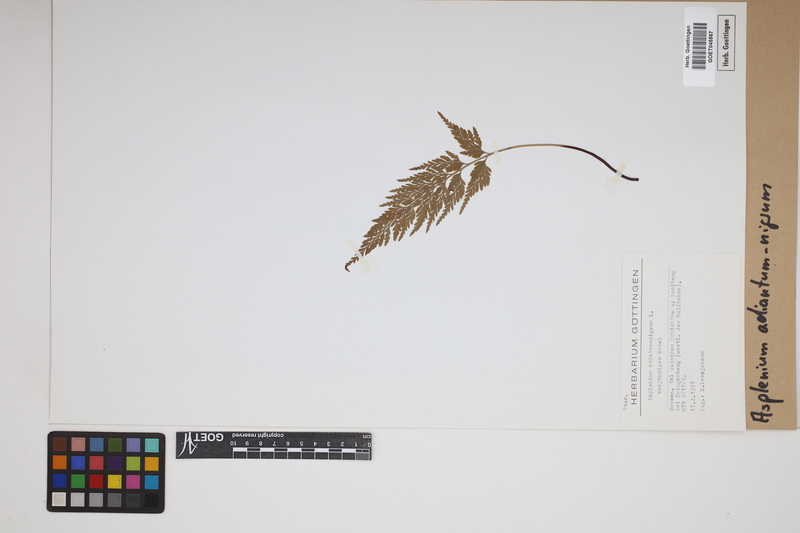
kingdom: Plantae
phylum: Tracheophyta
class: Polypodiopsida
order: Polypodiales
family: Aspleniaceae
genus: Asplenium
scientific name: Asplenium adiantum-nigrum
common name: Black spleenwort
